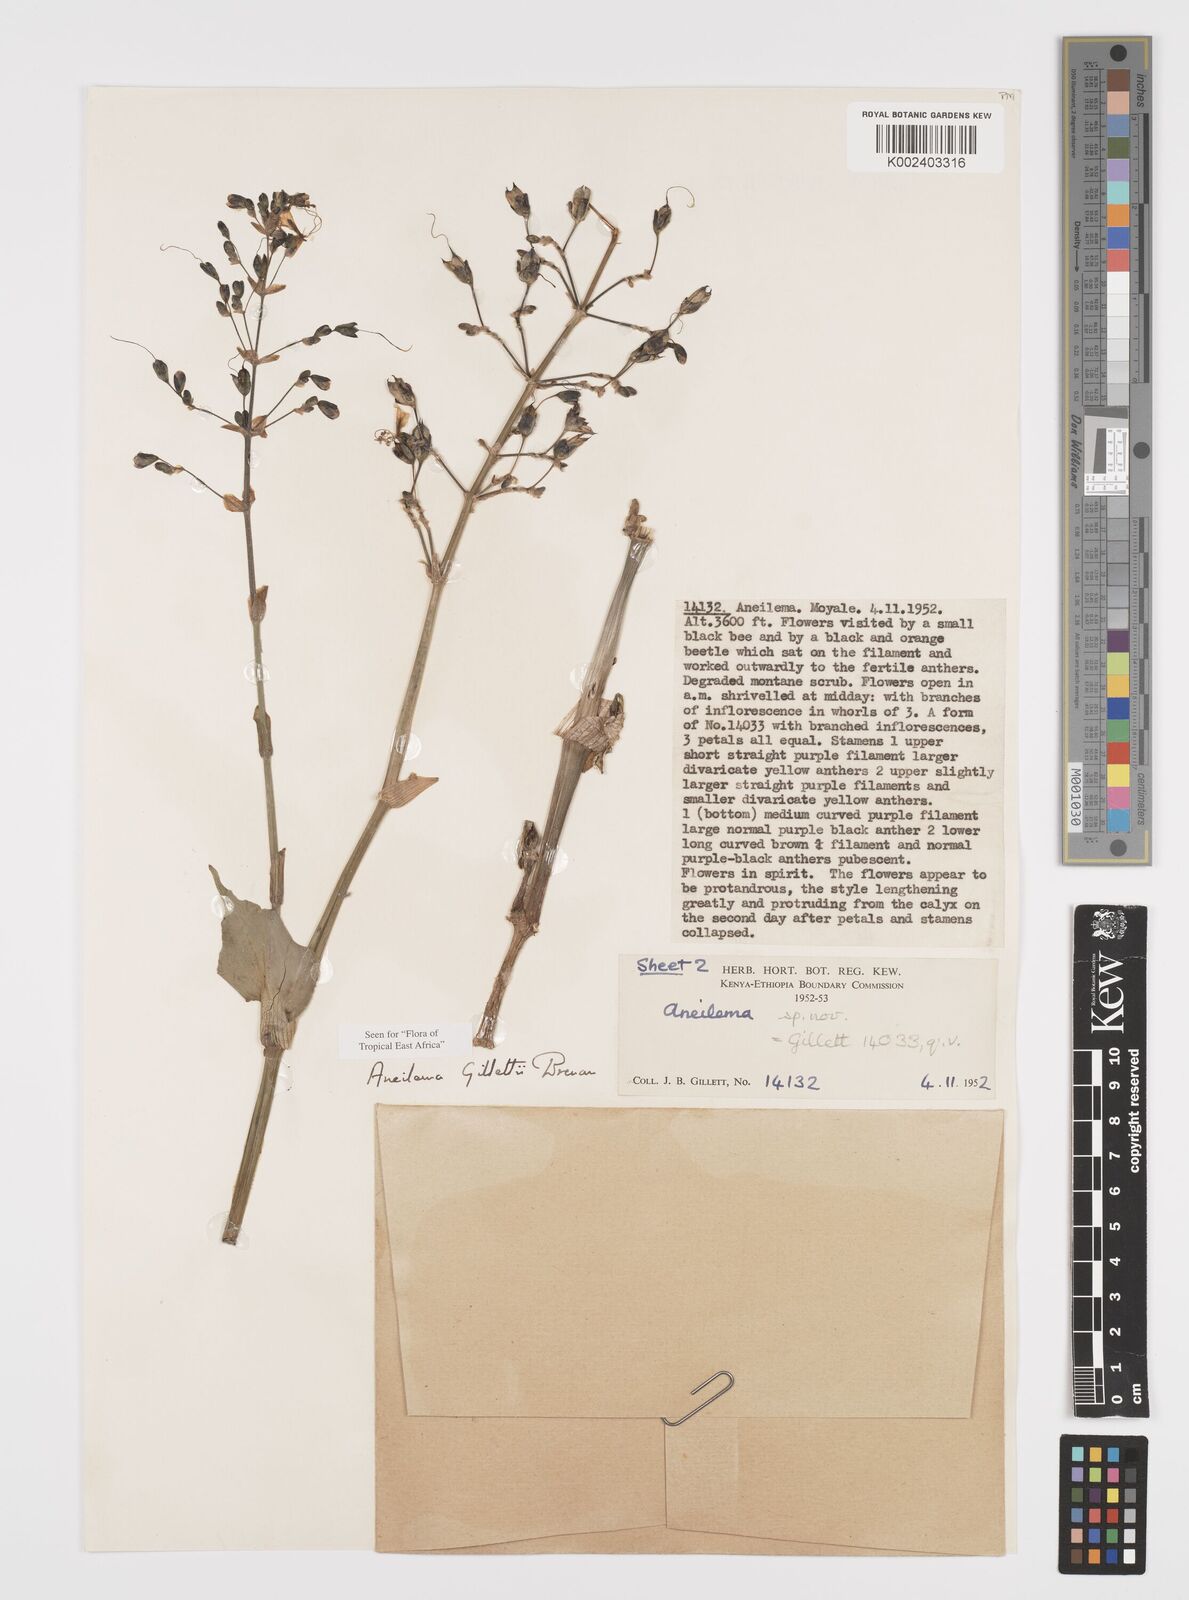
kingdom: Plantae
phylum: Tracheophyta
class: Liliopsida
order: Commelinales
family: Commelinaceae
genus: Aneilema
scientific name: Aneilema gillettii
